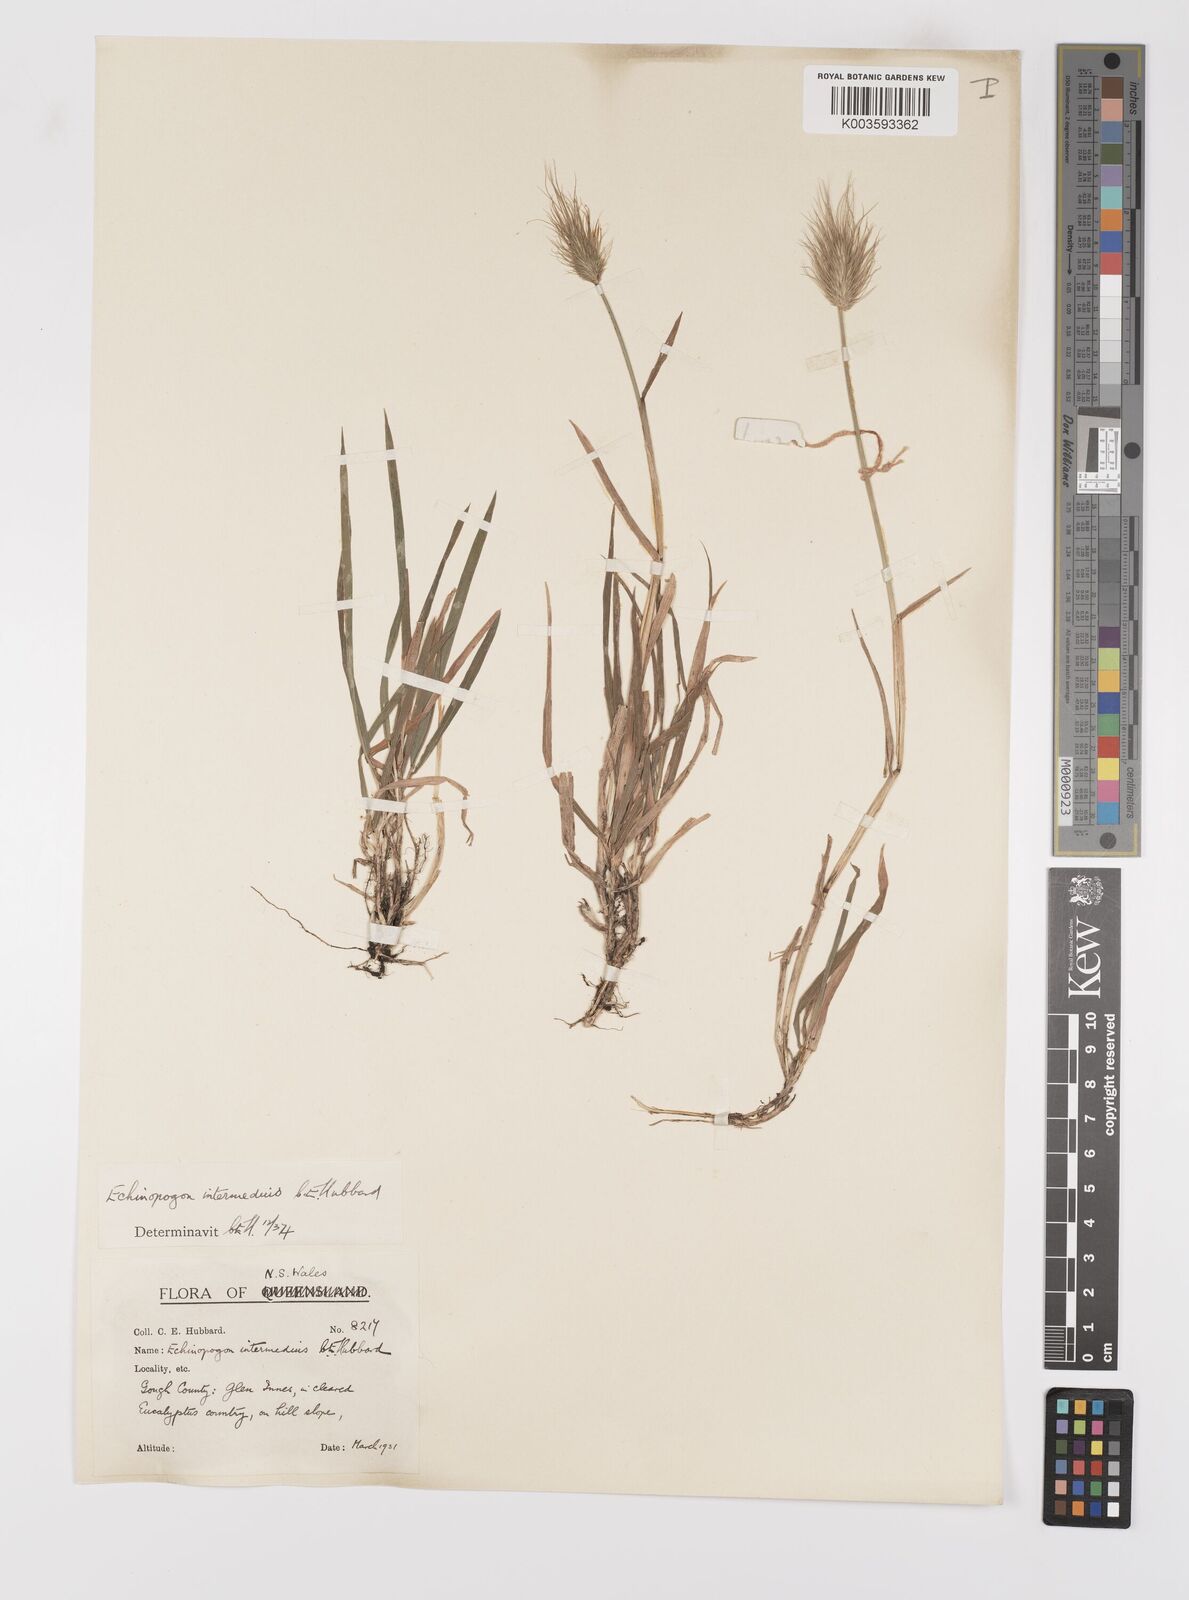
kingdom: Plantae
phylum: Tracheophyta
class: Liliopsida
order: Poales
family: Poaceae
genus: Echinopogon
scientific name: Echinopogon intermedius
